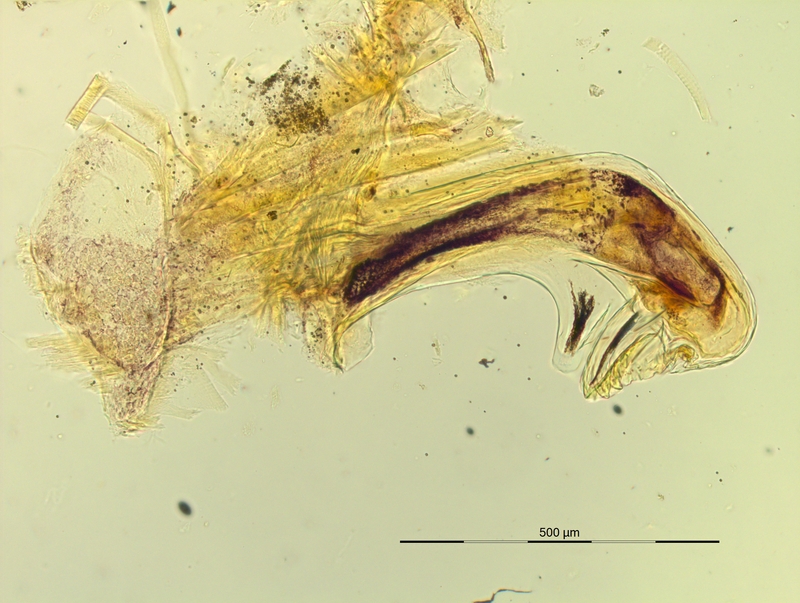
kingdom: Animalia
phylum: Arthropoda
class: Diplopoda
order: Chordeumatida
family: Craspedosomatidae
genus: Pyrgocyphosoma
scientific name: Pyrgocyphosoma ligusticum
